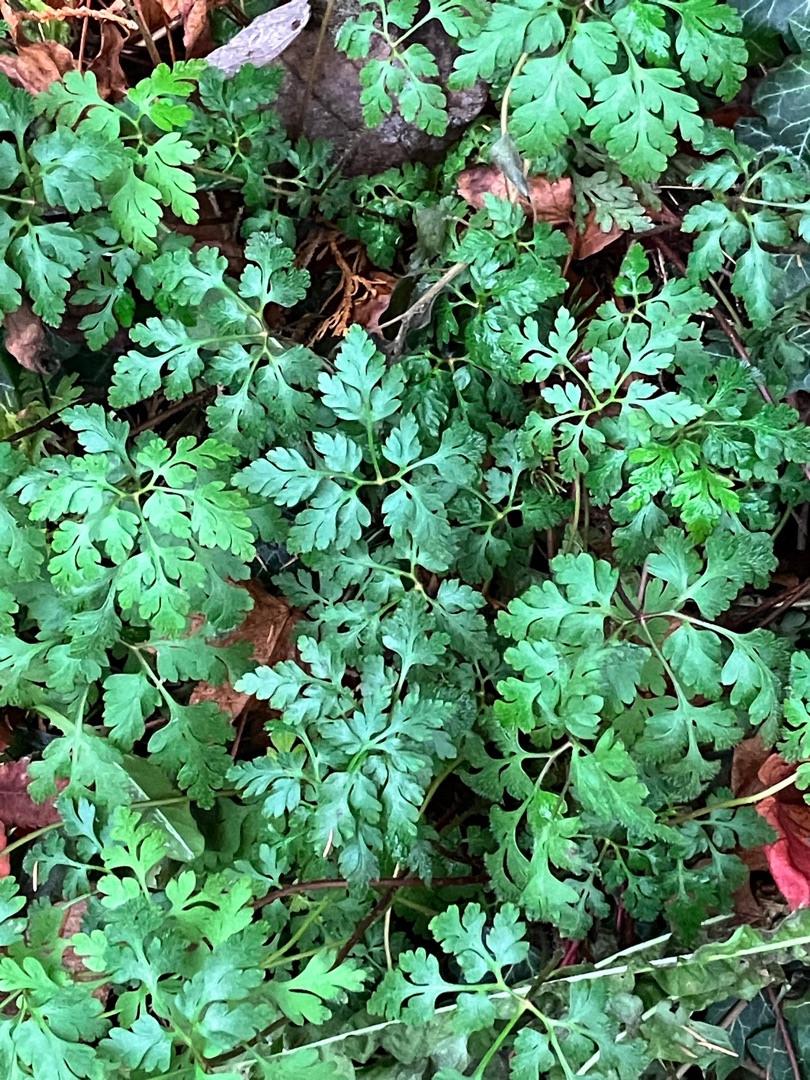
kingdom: Plantae
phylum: Tracheophyta
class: Magnoliopsida
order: Geraniales
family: Geraniaceae
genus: Geranium
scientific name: Geranium robertianum
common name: Stinkende storkenæb
